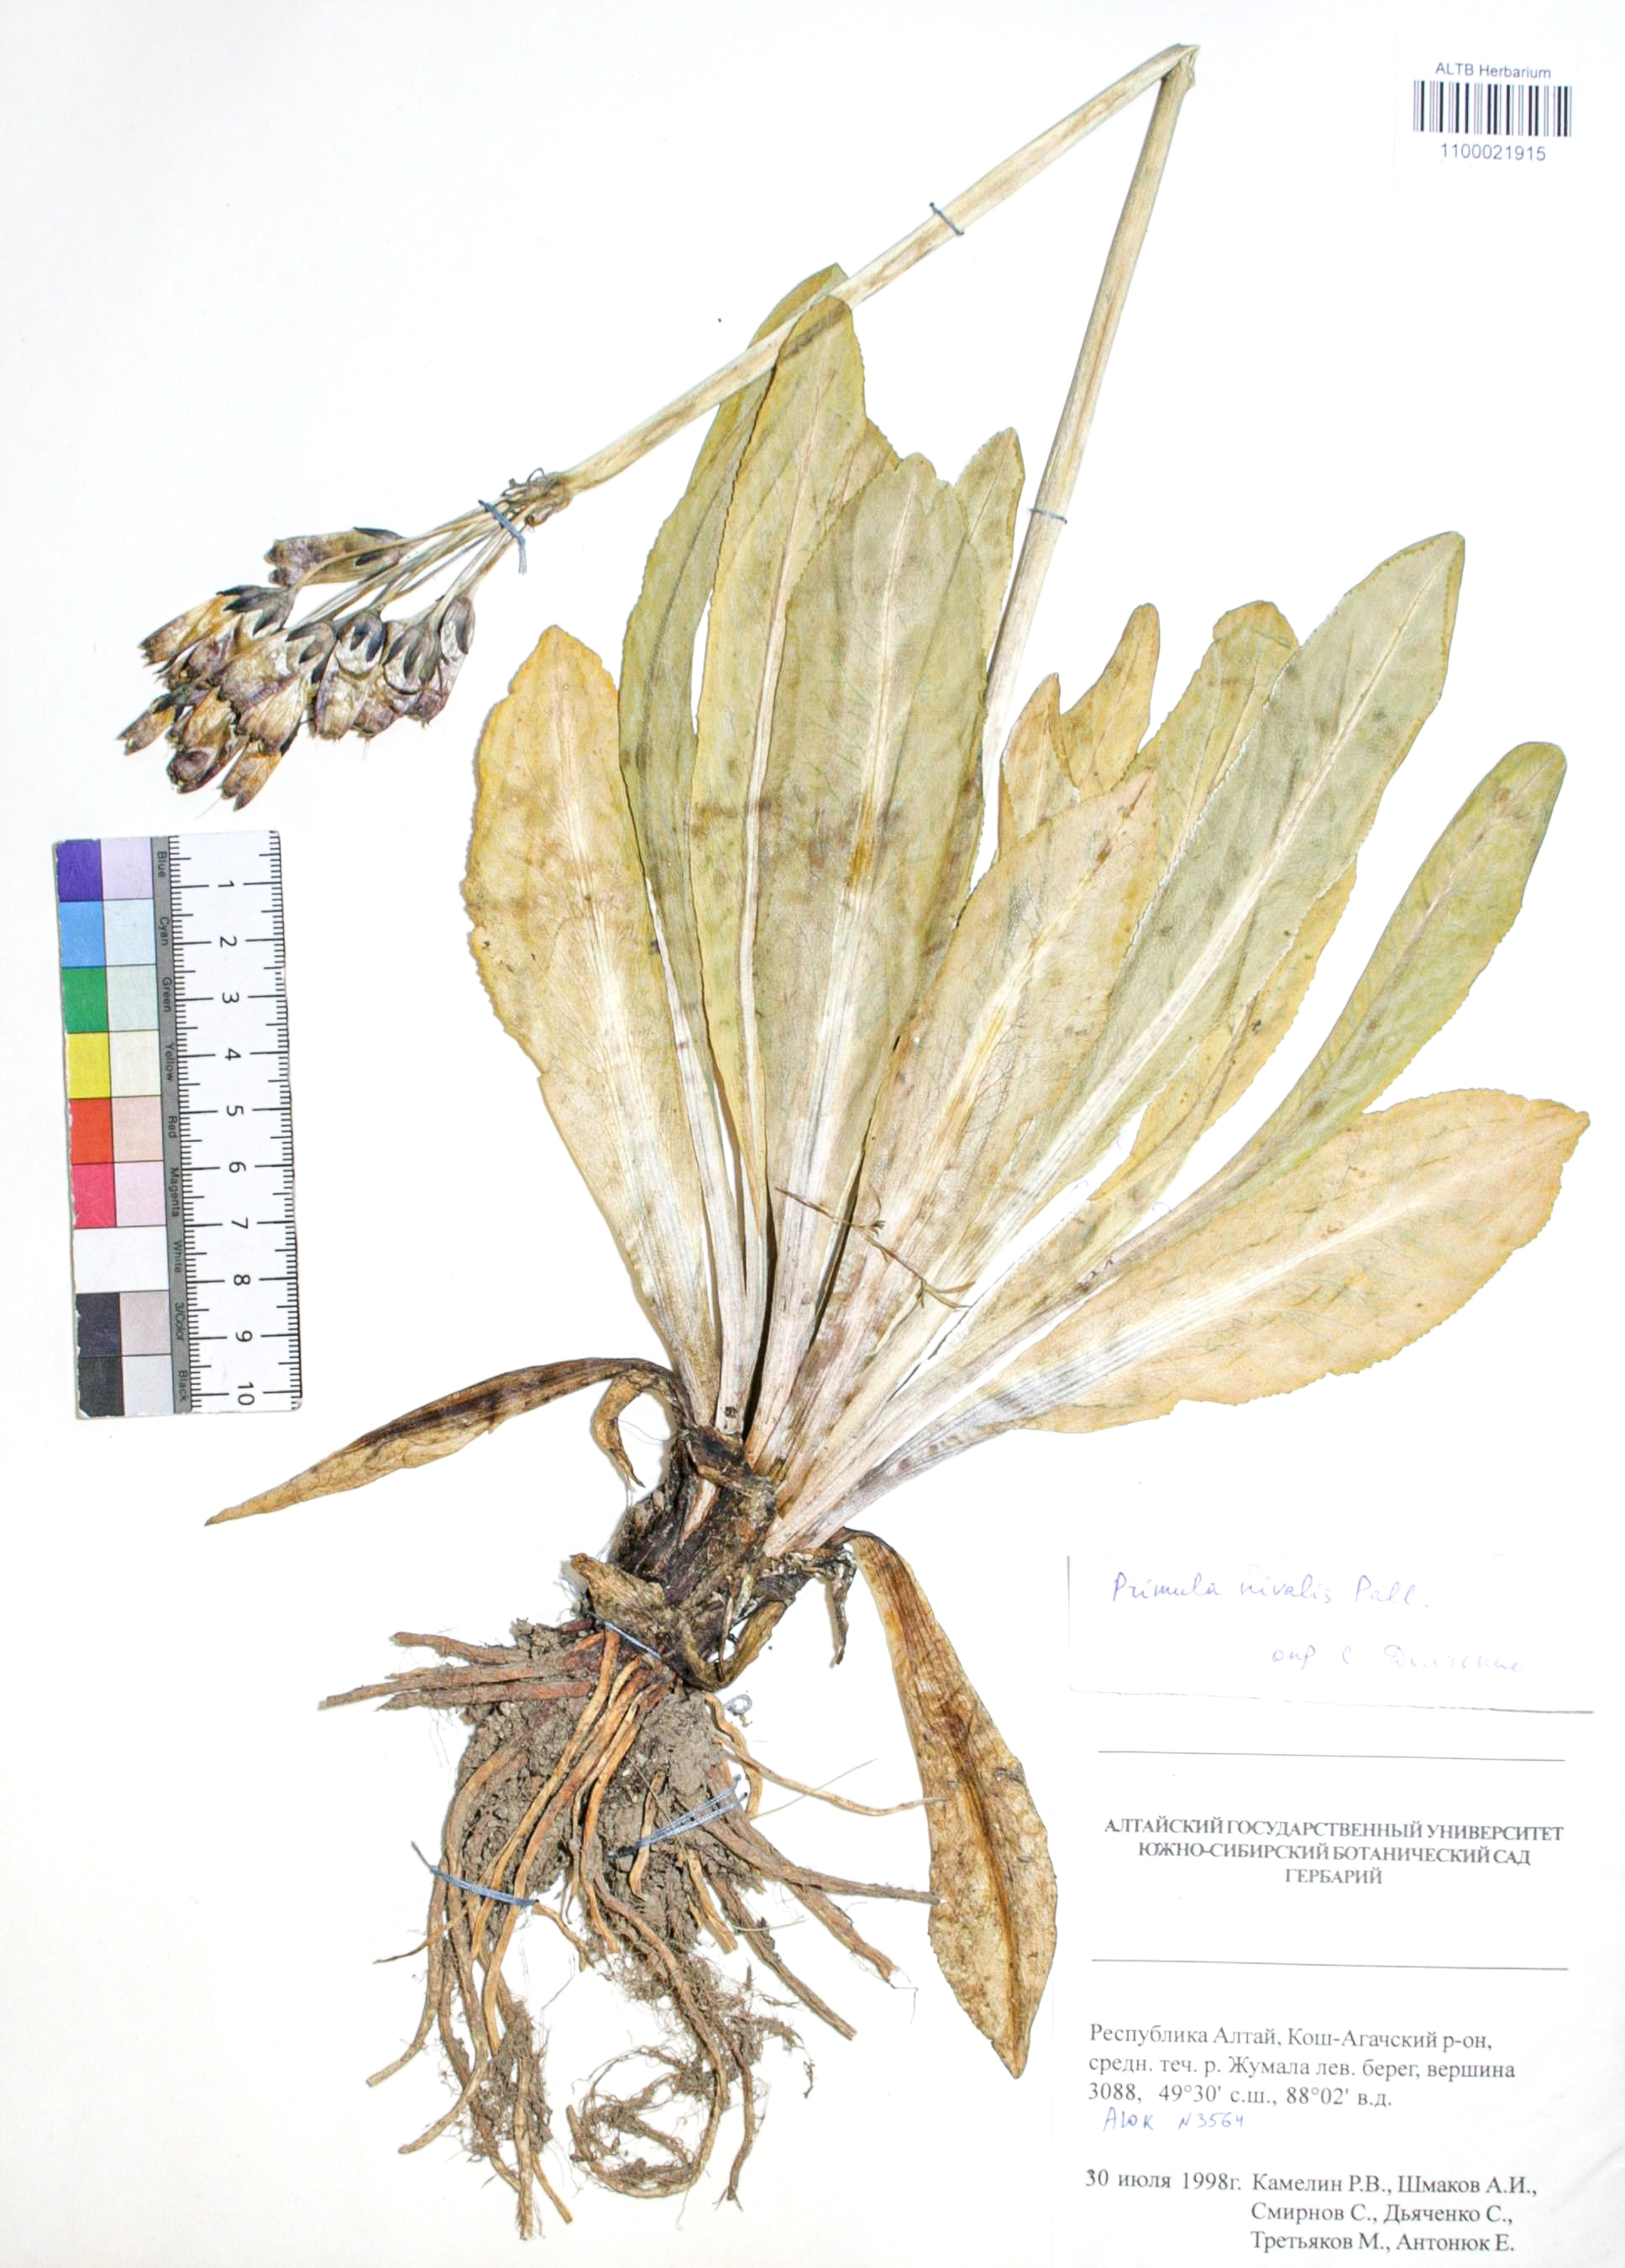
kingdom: Plantae
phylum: Tracheophyta
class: Magnoliopsida
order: Ericales
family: Primulaceae
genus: Primula
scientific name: Primula nivalis
